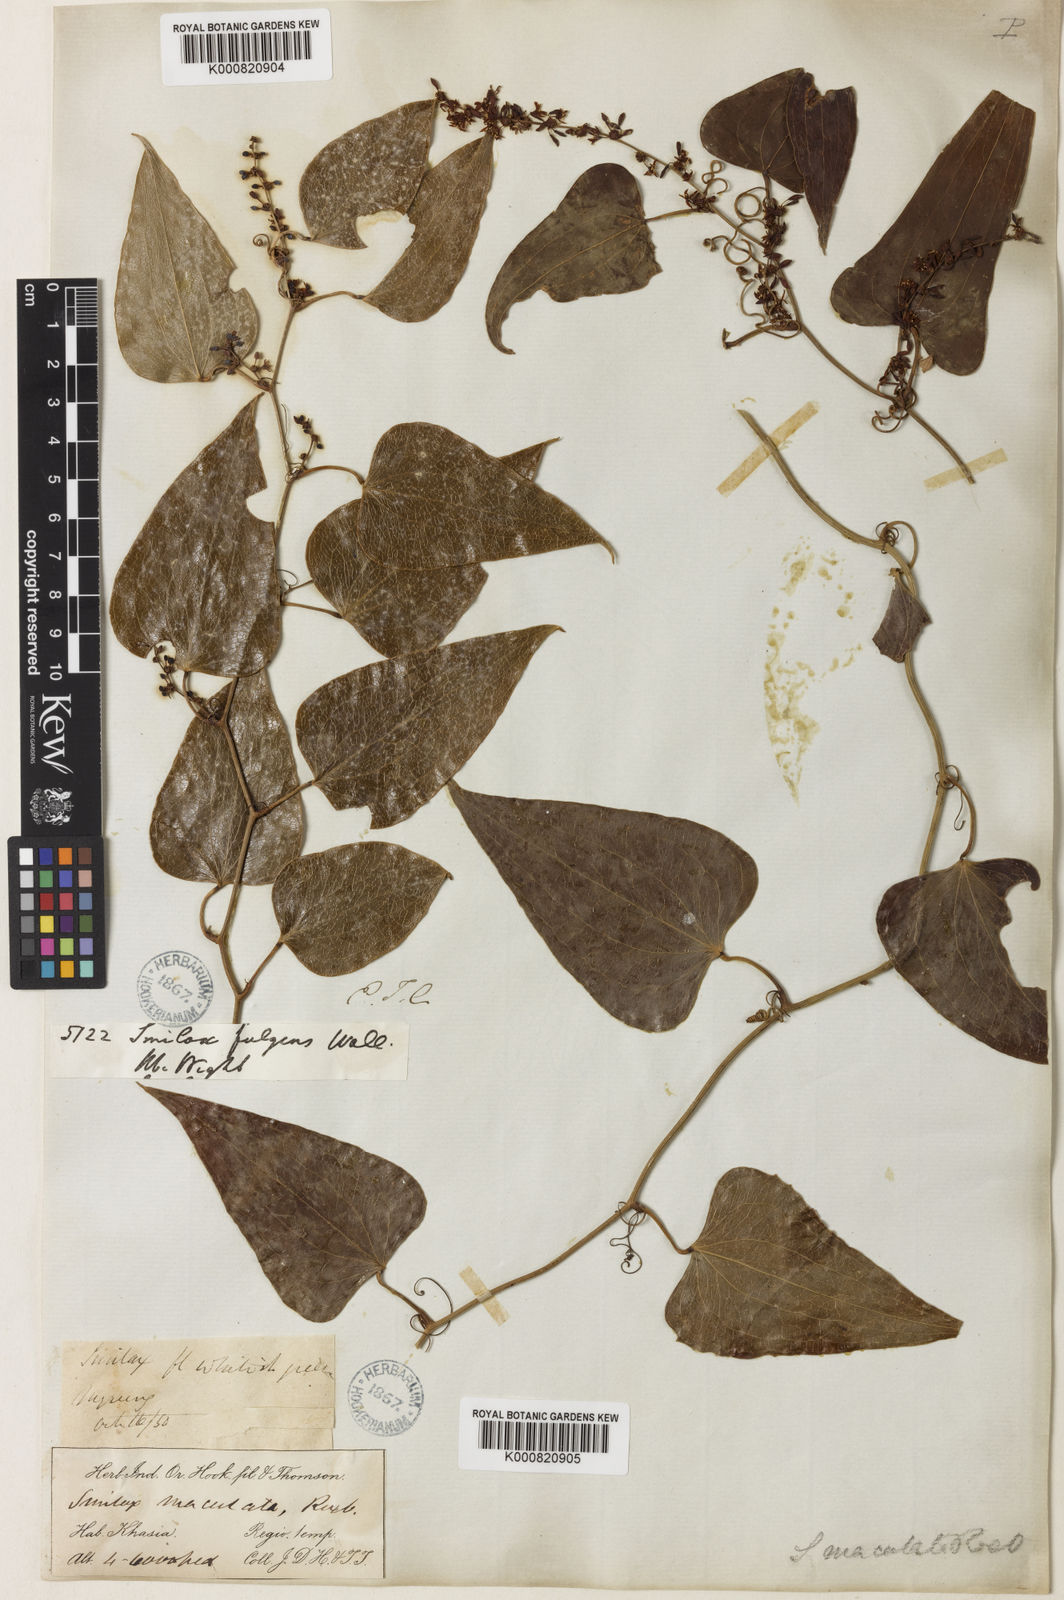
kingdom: Plantae
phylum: Tracheophyta
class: Liliopsida
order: Liliales
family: Smilacaceae
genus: Smilax
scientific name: Smilax aspera
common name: Common smilax
